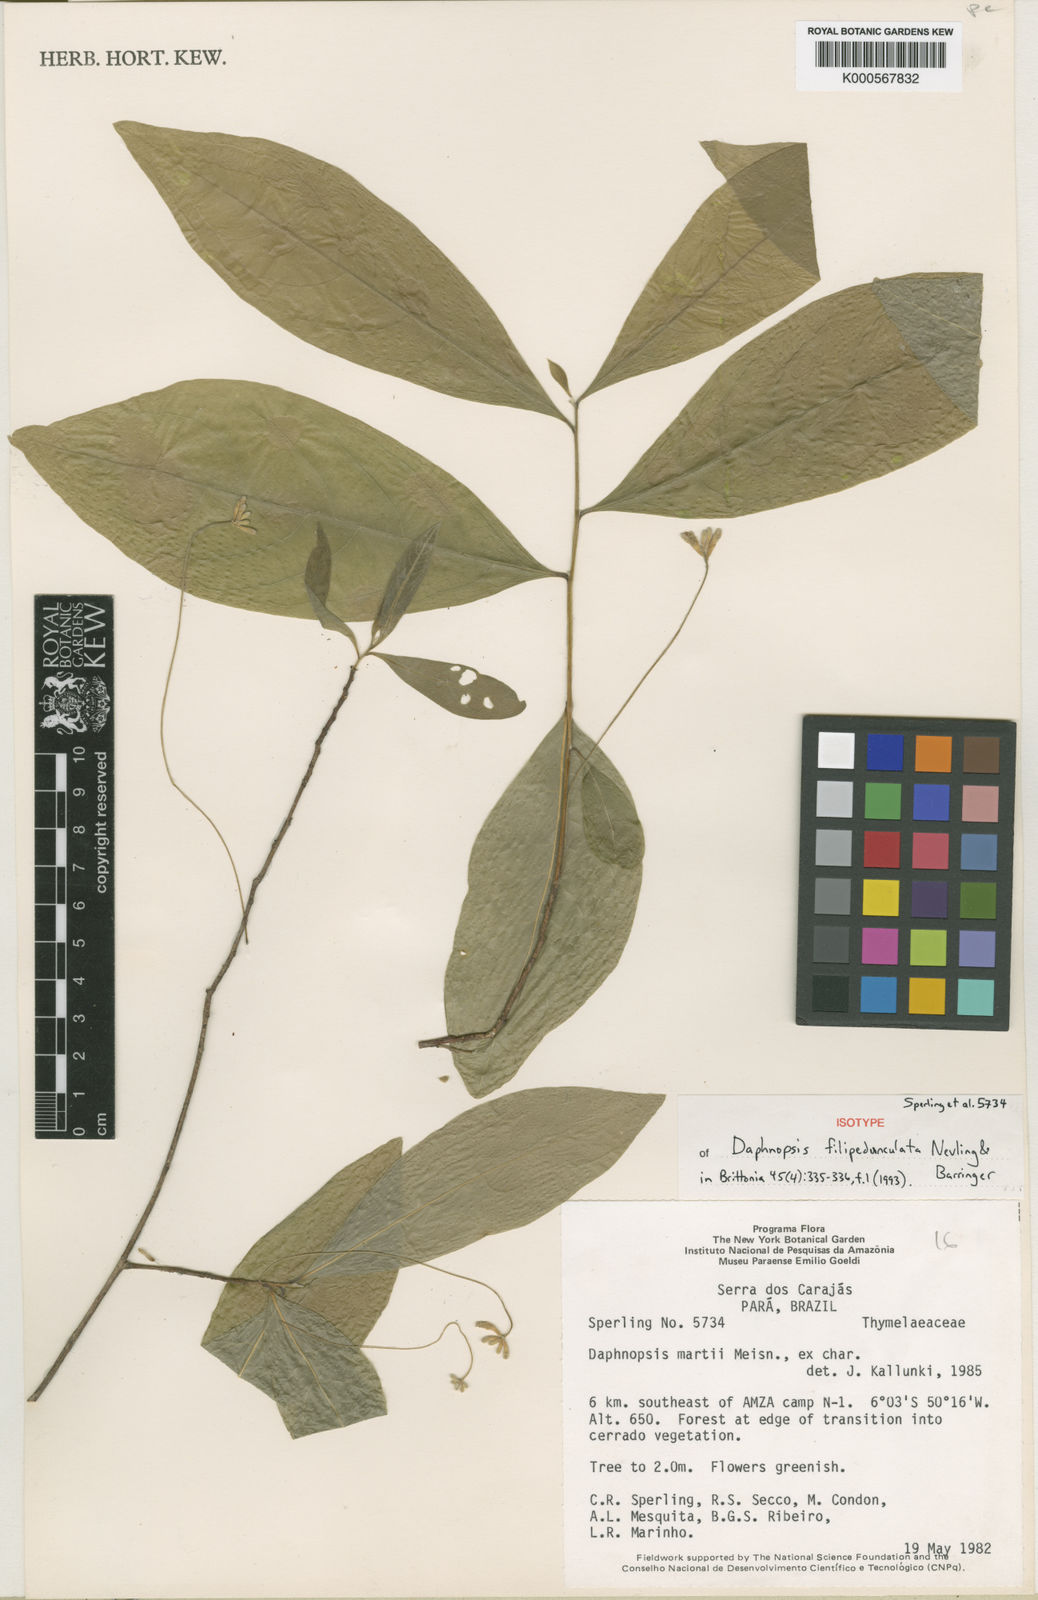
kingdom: Plantae
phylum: Tracheophyta
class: Magnoliopsida
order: Malvales
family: Thymelaeaceae
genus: Daphnopsis
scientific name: Daphnopsis filipedunculata
